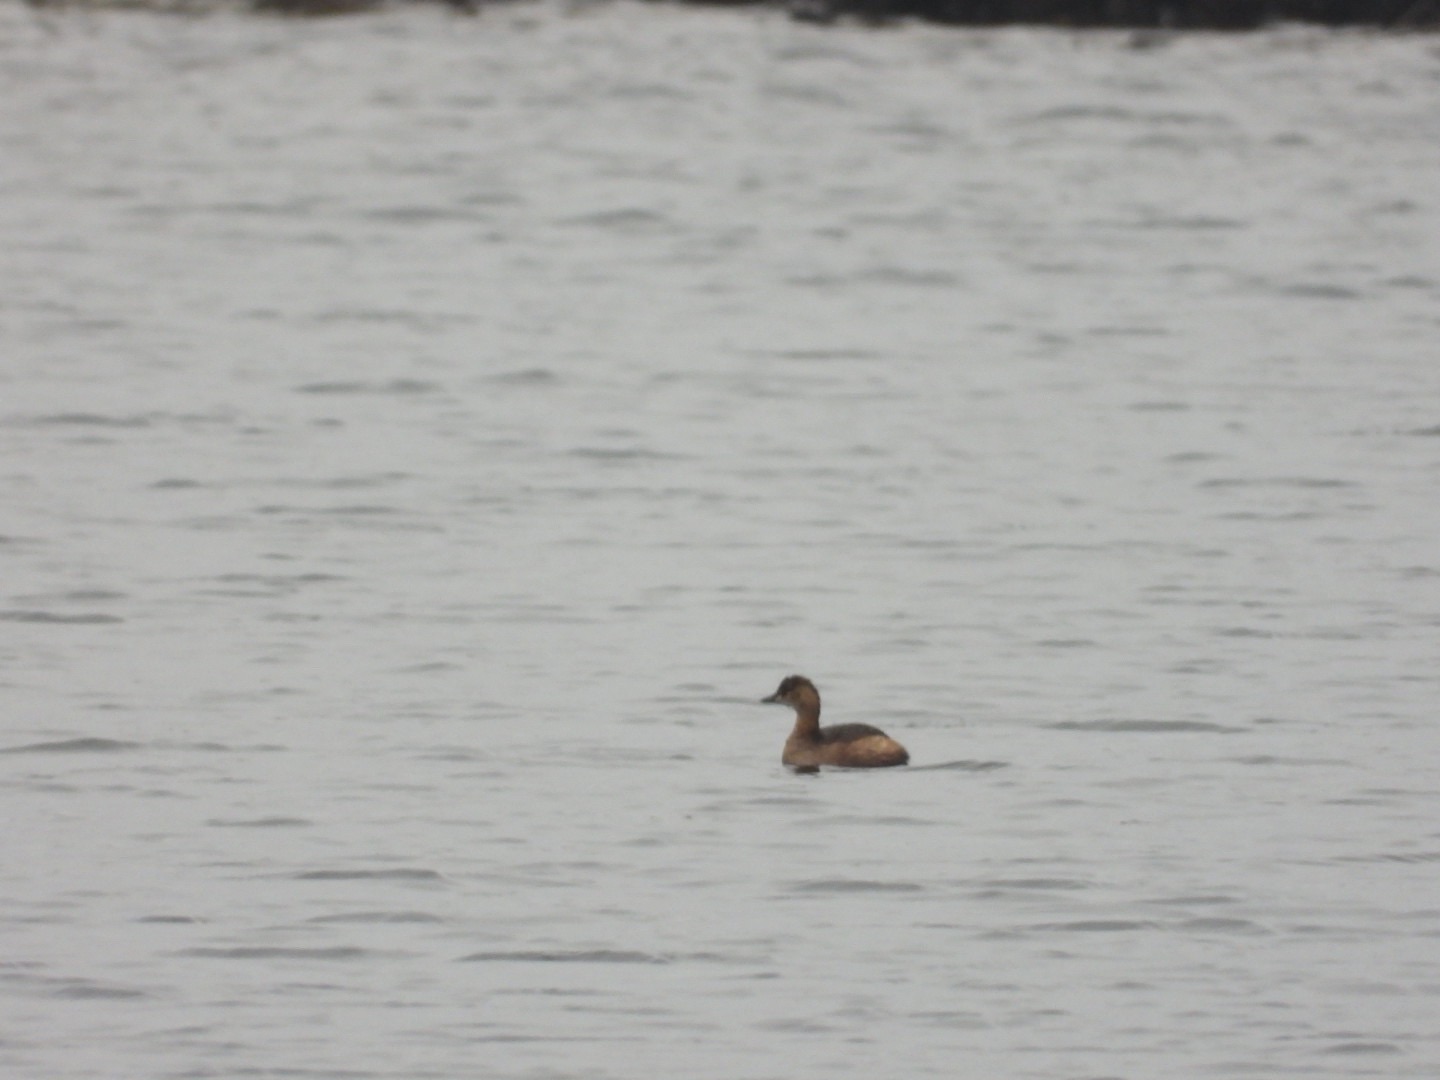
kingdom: Animalia
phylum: Chordata
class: Aves
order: Podicipediformes
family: Podicipedidae
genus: Tachybaptus
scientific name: Tachybaptus ruficollis
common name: Lille lappedykker
